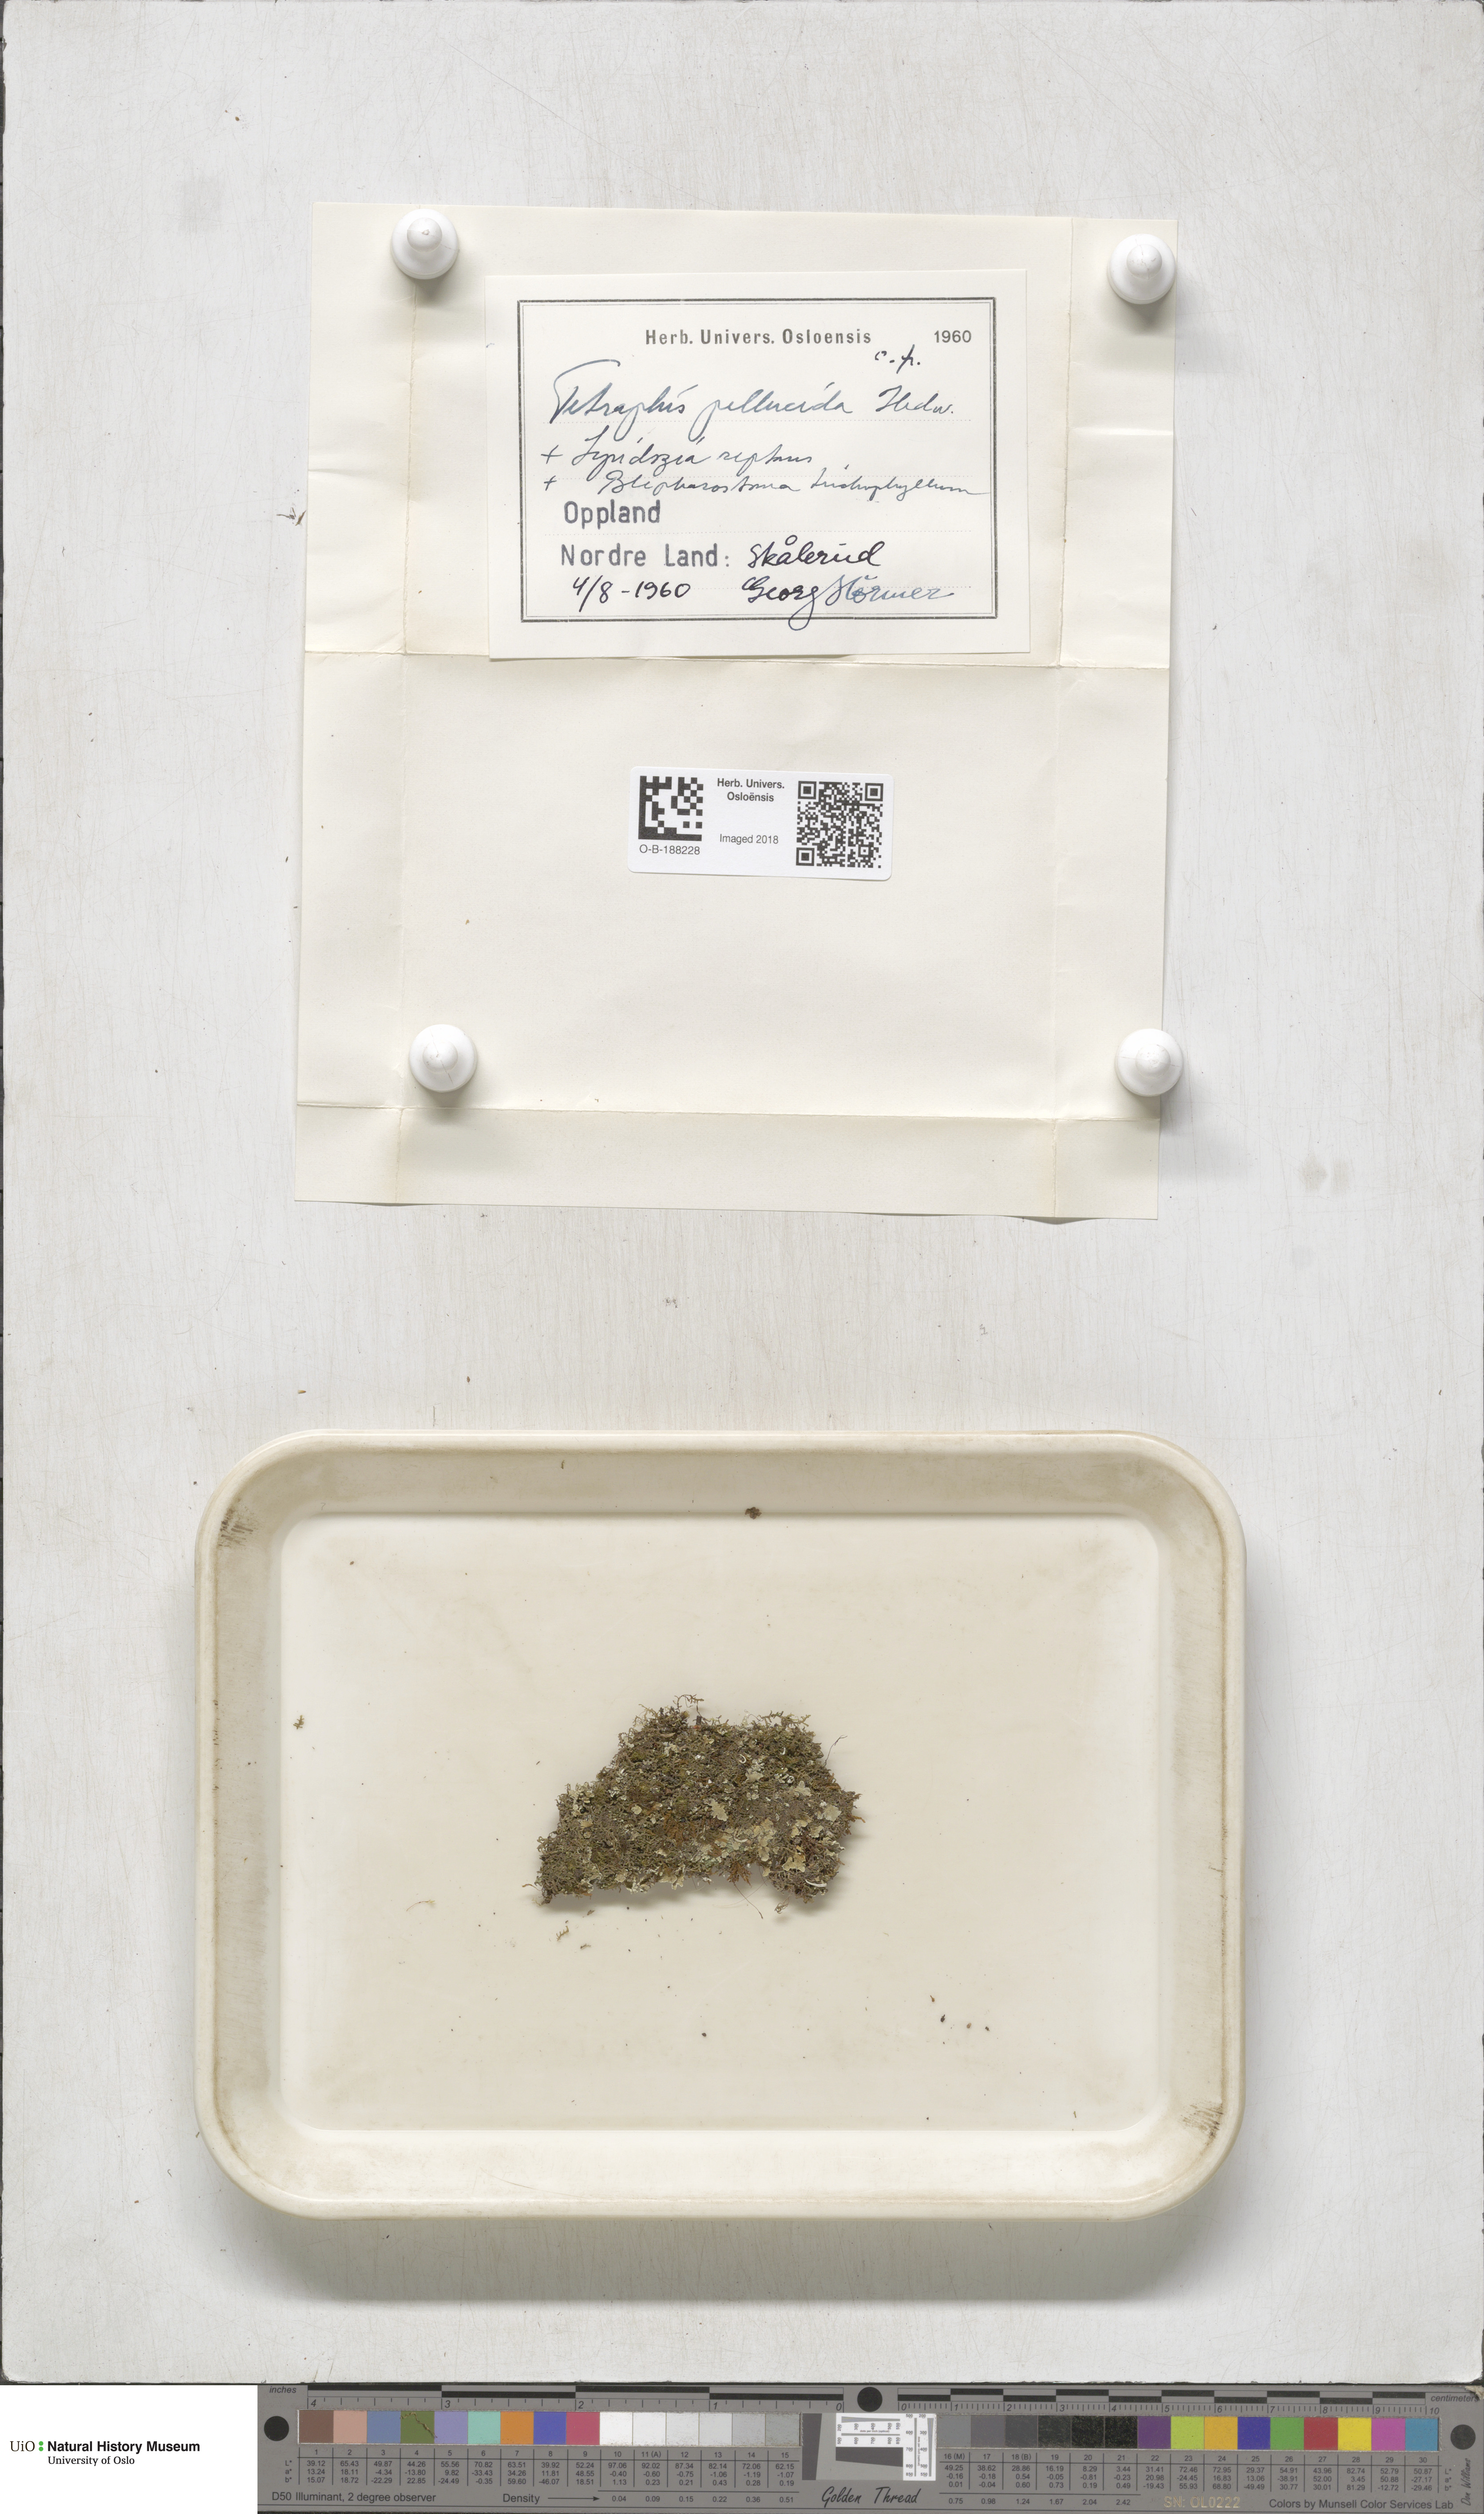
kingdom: Plantae
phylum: Bryophyta
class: Polytrichopsida
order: Tetraphidales
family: Tetraphidaceae
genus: Tetraphis
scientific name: Tetraphis pellucida
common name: Common four-toothed moss
